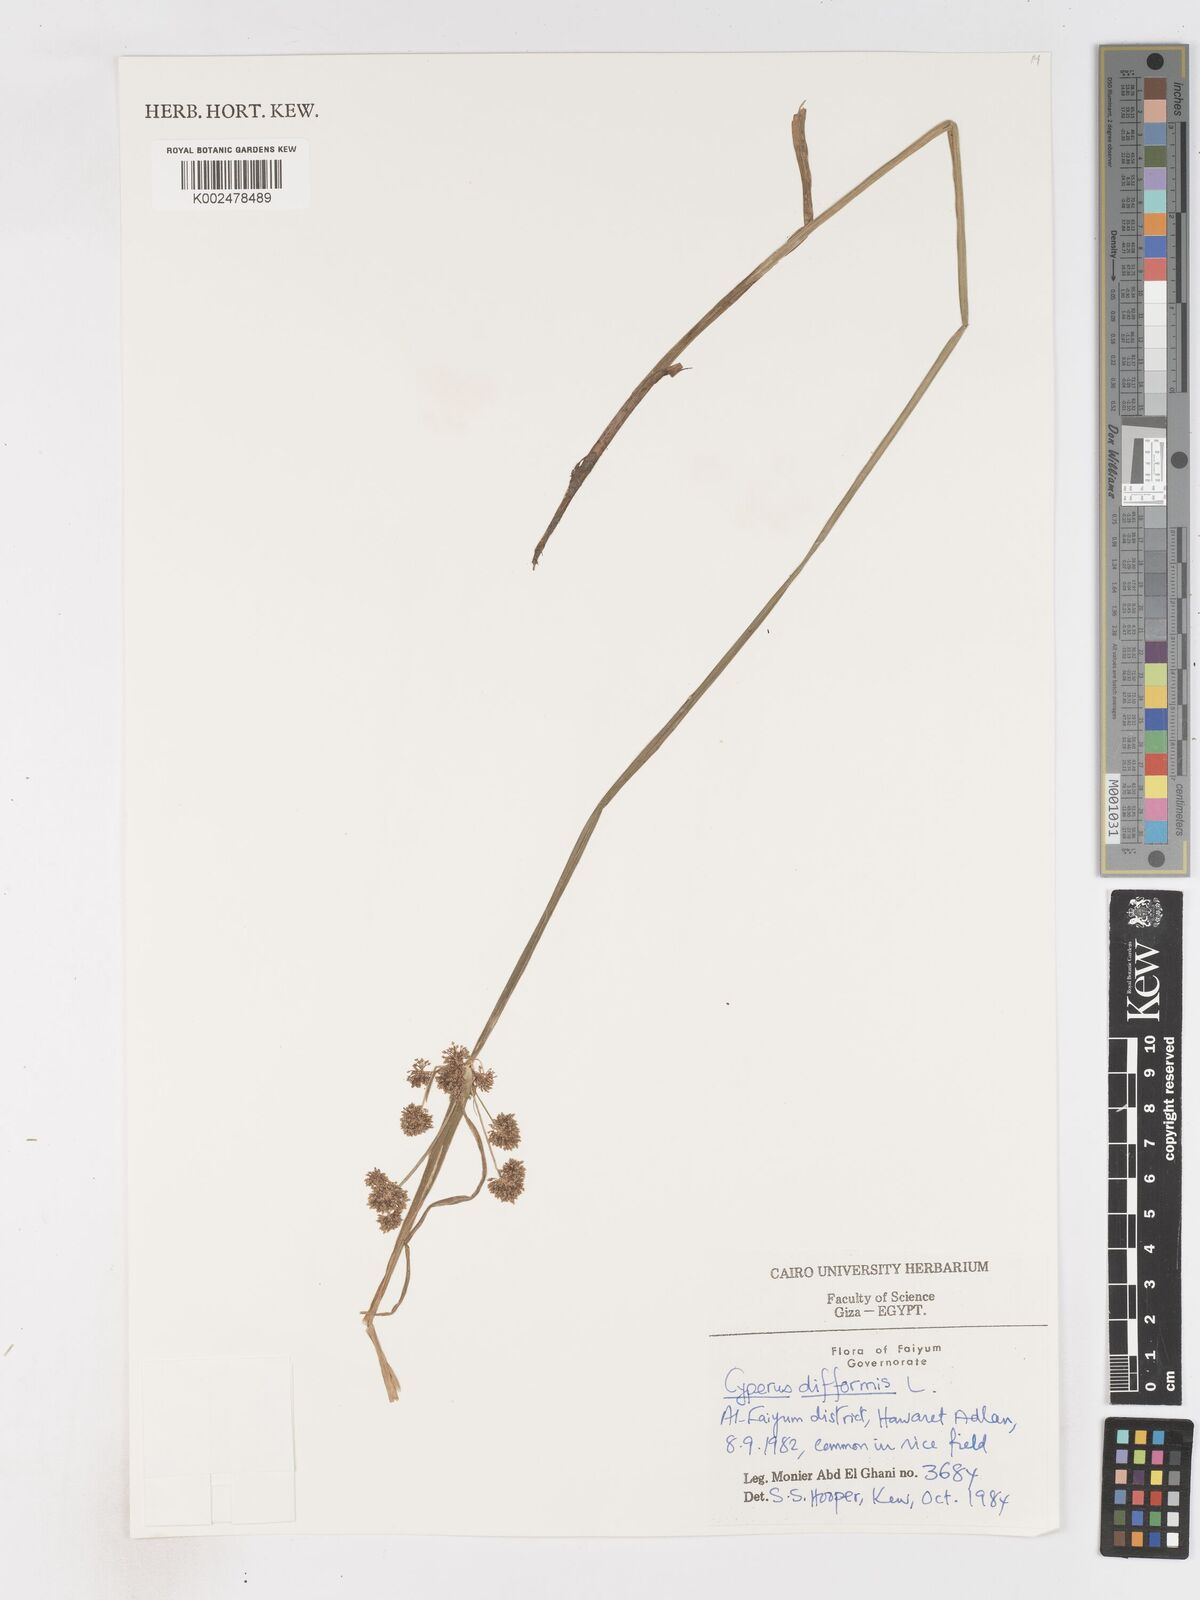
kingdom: Plantae
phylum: Tracheophyta
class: Liliopsida
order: Poales
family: Cyperaceae
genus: Cyperus
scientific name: Cyperus difformis
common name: Variable flatsedge
